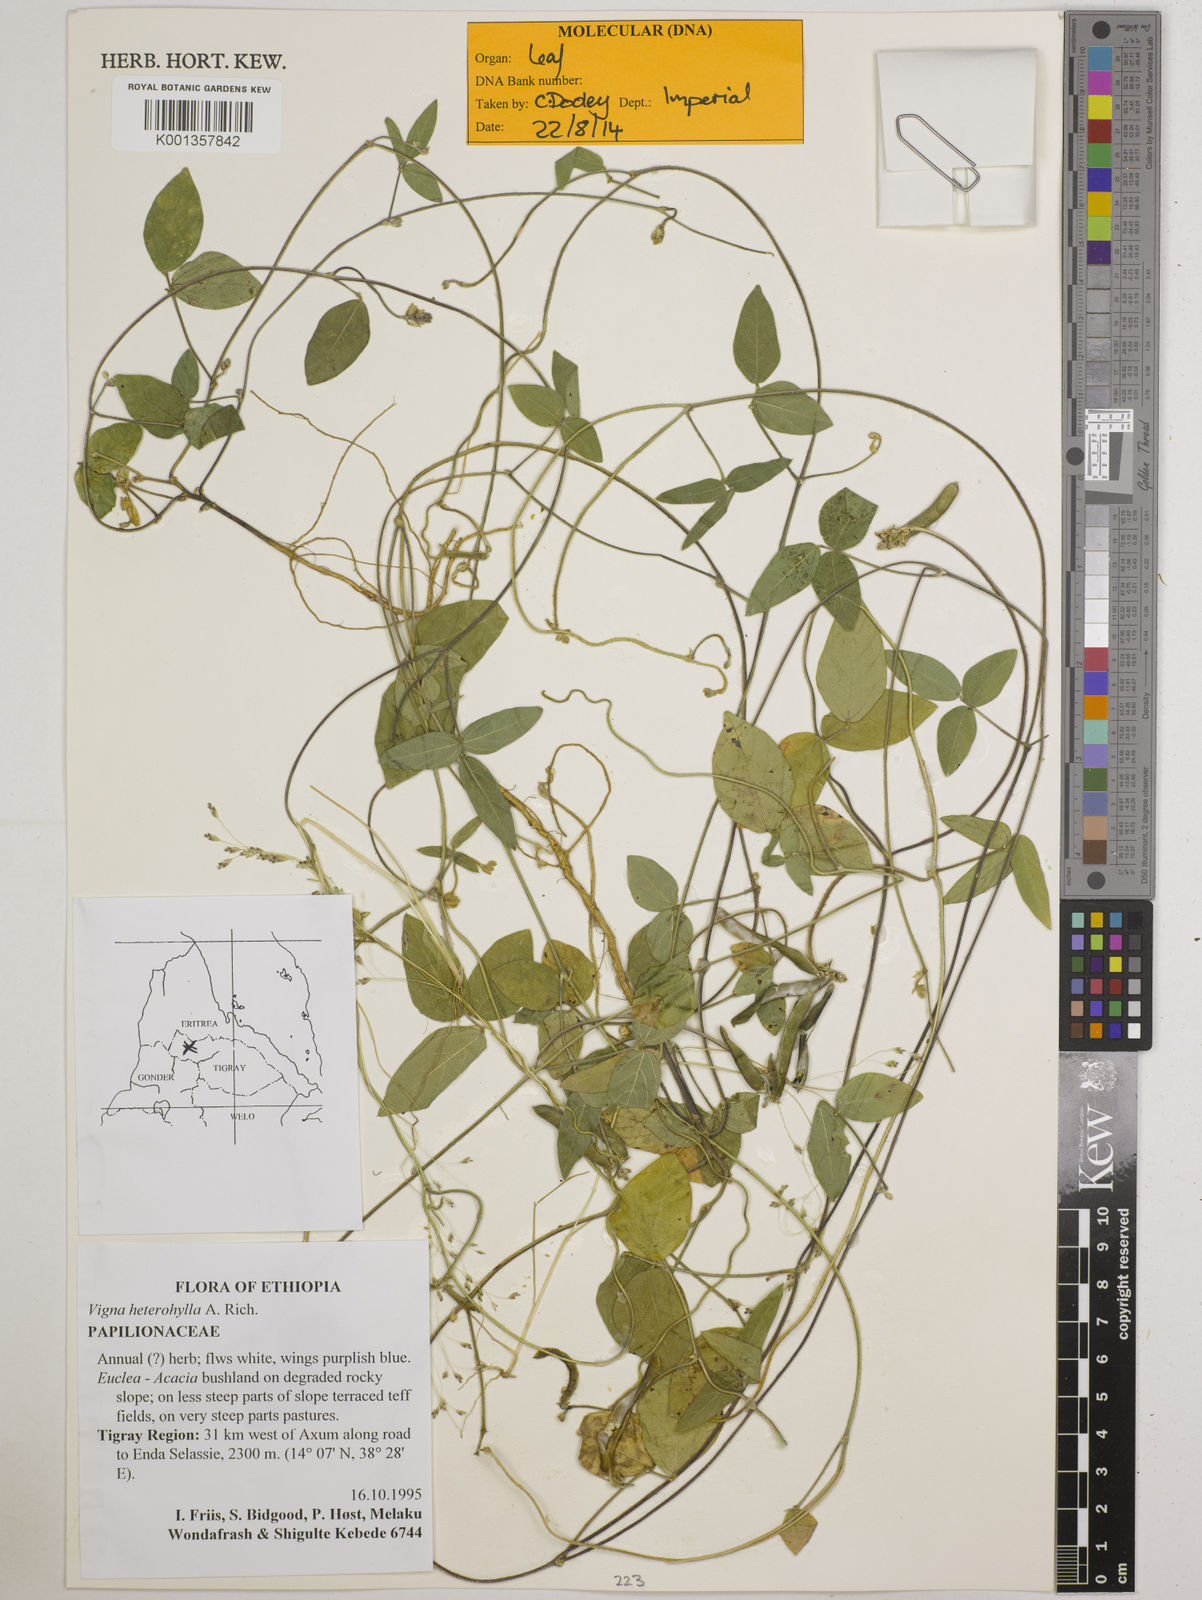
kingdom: Plantae
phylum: Tracheophyta
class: Magnoliopsida
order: Fabales
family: Fabaceae
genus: Vigna
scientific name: Vigna heterophylla
